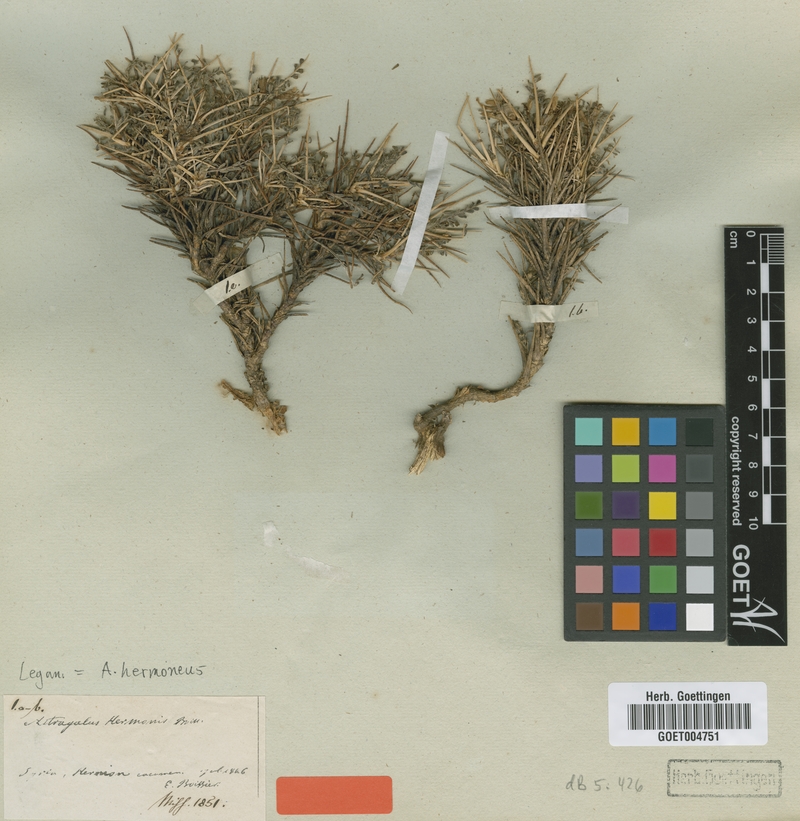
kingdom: Plantae
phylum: Tracheophyta
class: Magnoliopsida
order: Fabales
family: Fabaceae
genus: Astragalus
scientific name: Astragalus hermoneus
